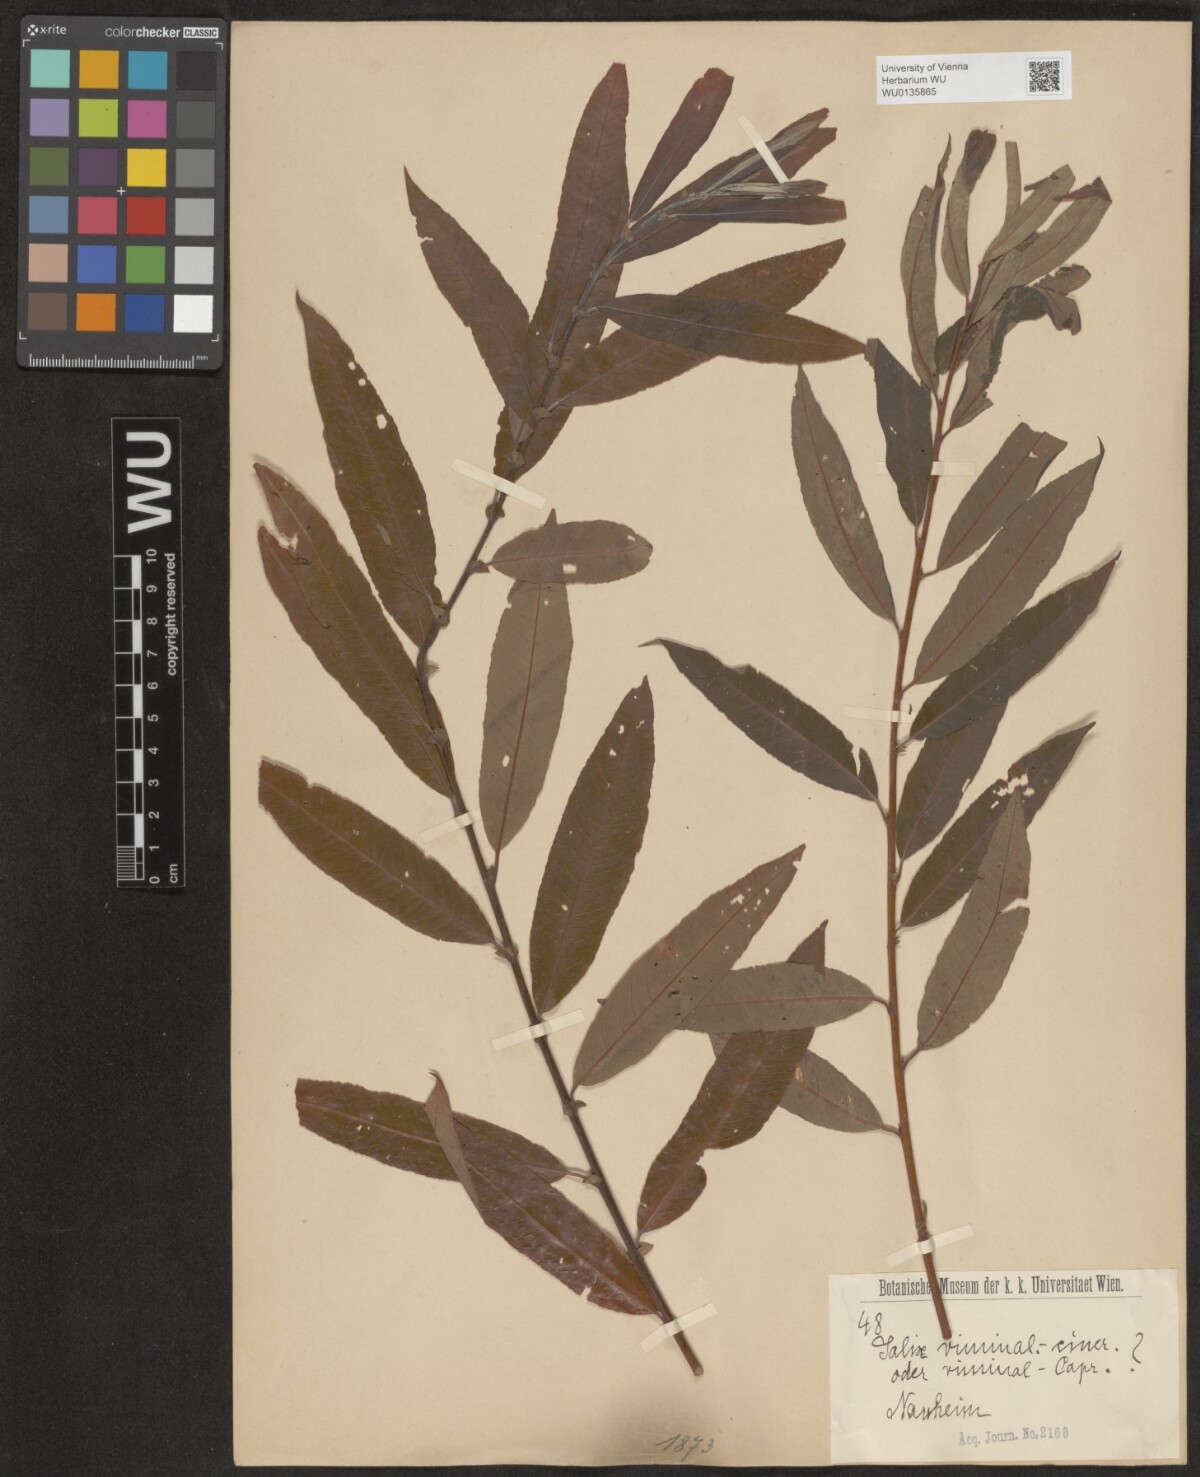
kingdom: Plantae
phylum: Tracheophyta
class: Magnoliopsida
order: Malpighiales
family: Salicaceae
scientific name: Salicaceae
